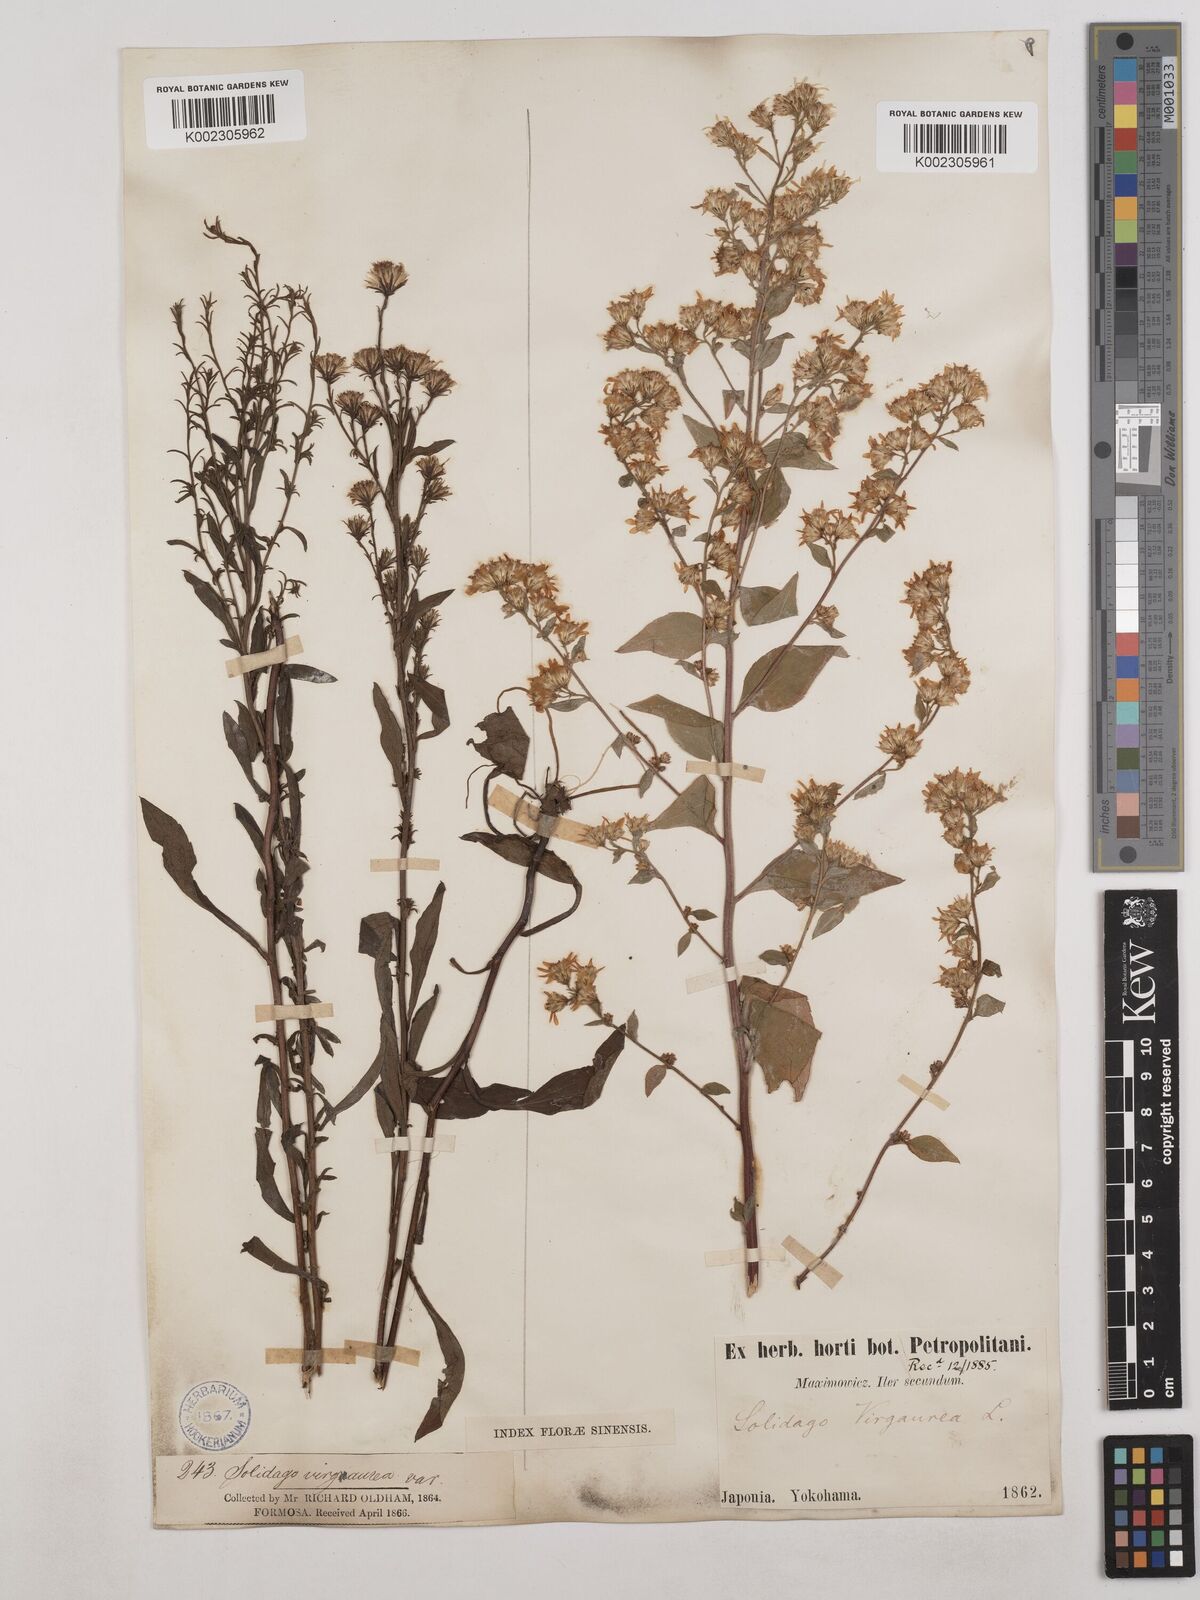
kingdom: Plantae
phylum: Tracheophyta
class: Magnoliopsida
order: Asterales
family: Asteraceae
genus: Solidago
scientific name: Solidago virgaurea
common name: Goldenrod
